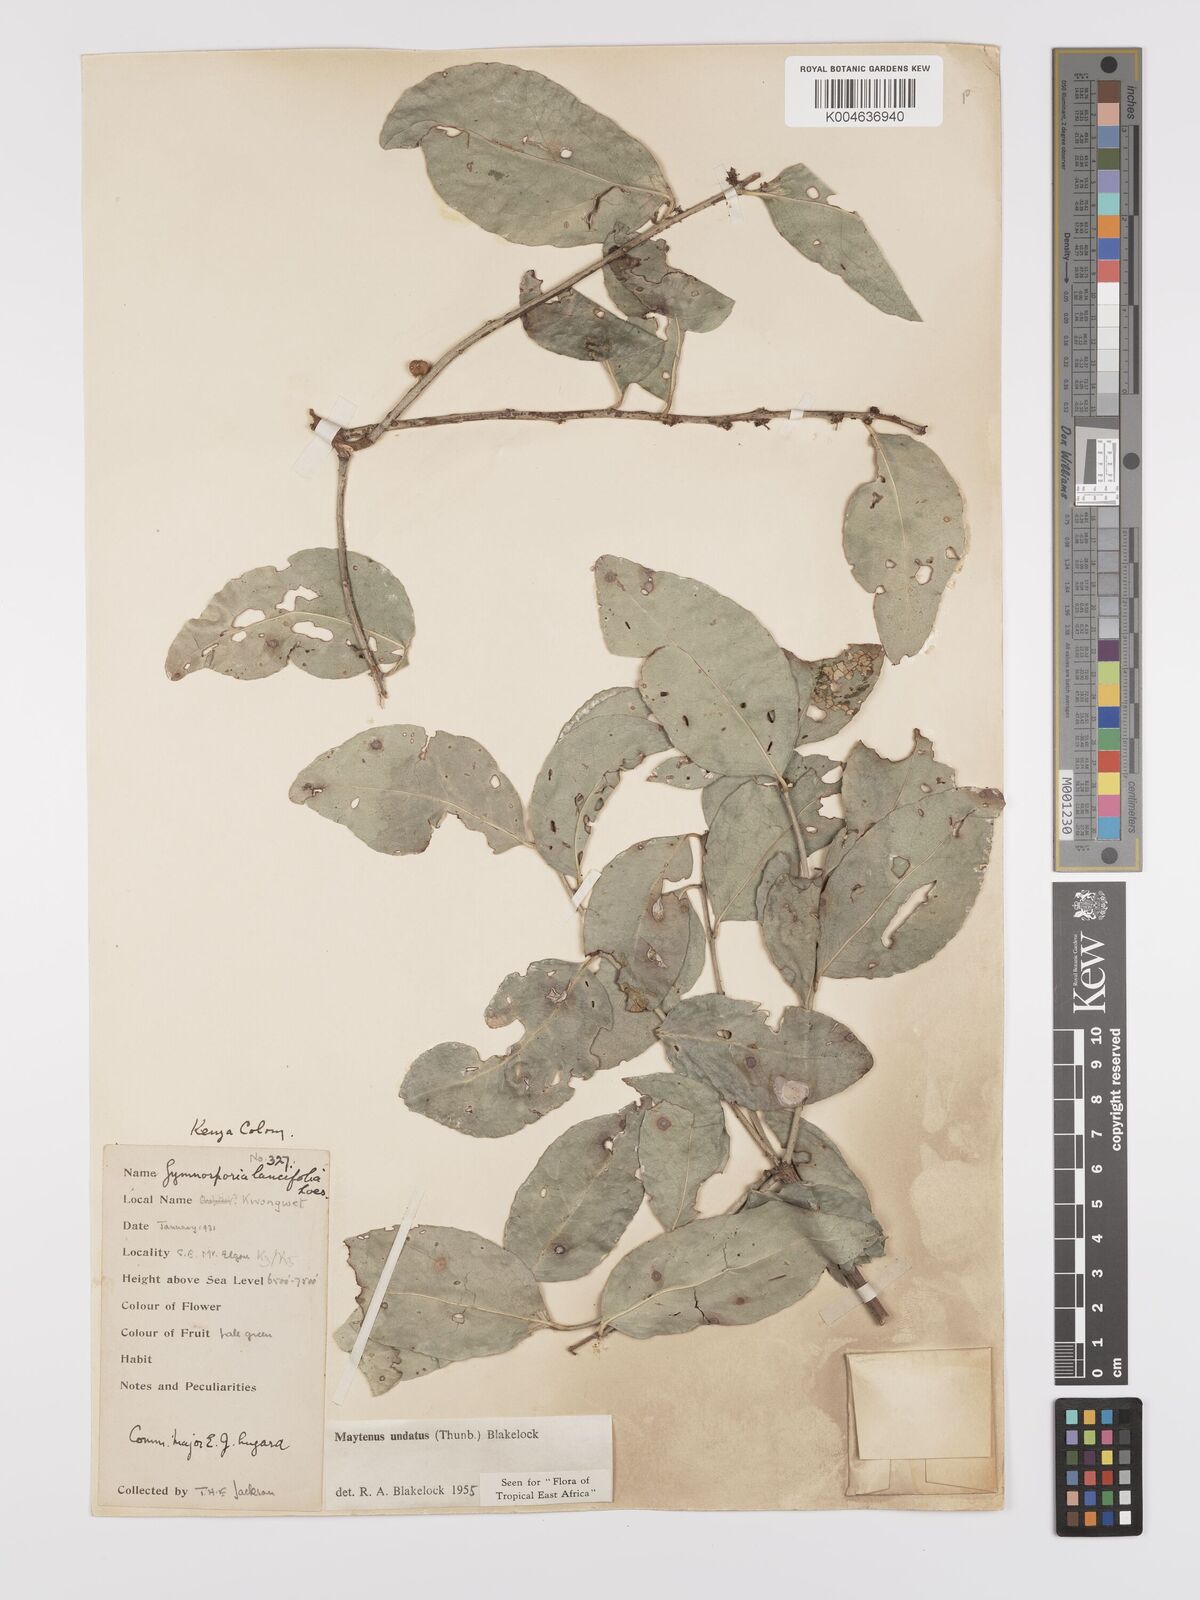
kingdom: Plantae
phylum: Tracheophyta
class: Magnoliopsida
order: Celastrales
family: Celastraceae
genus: Gymnosporia
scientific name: Gymnosporia undata
